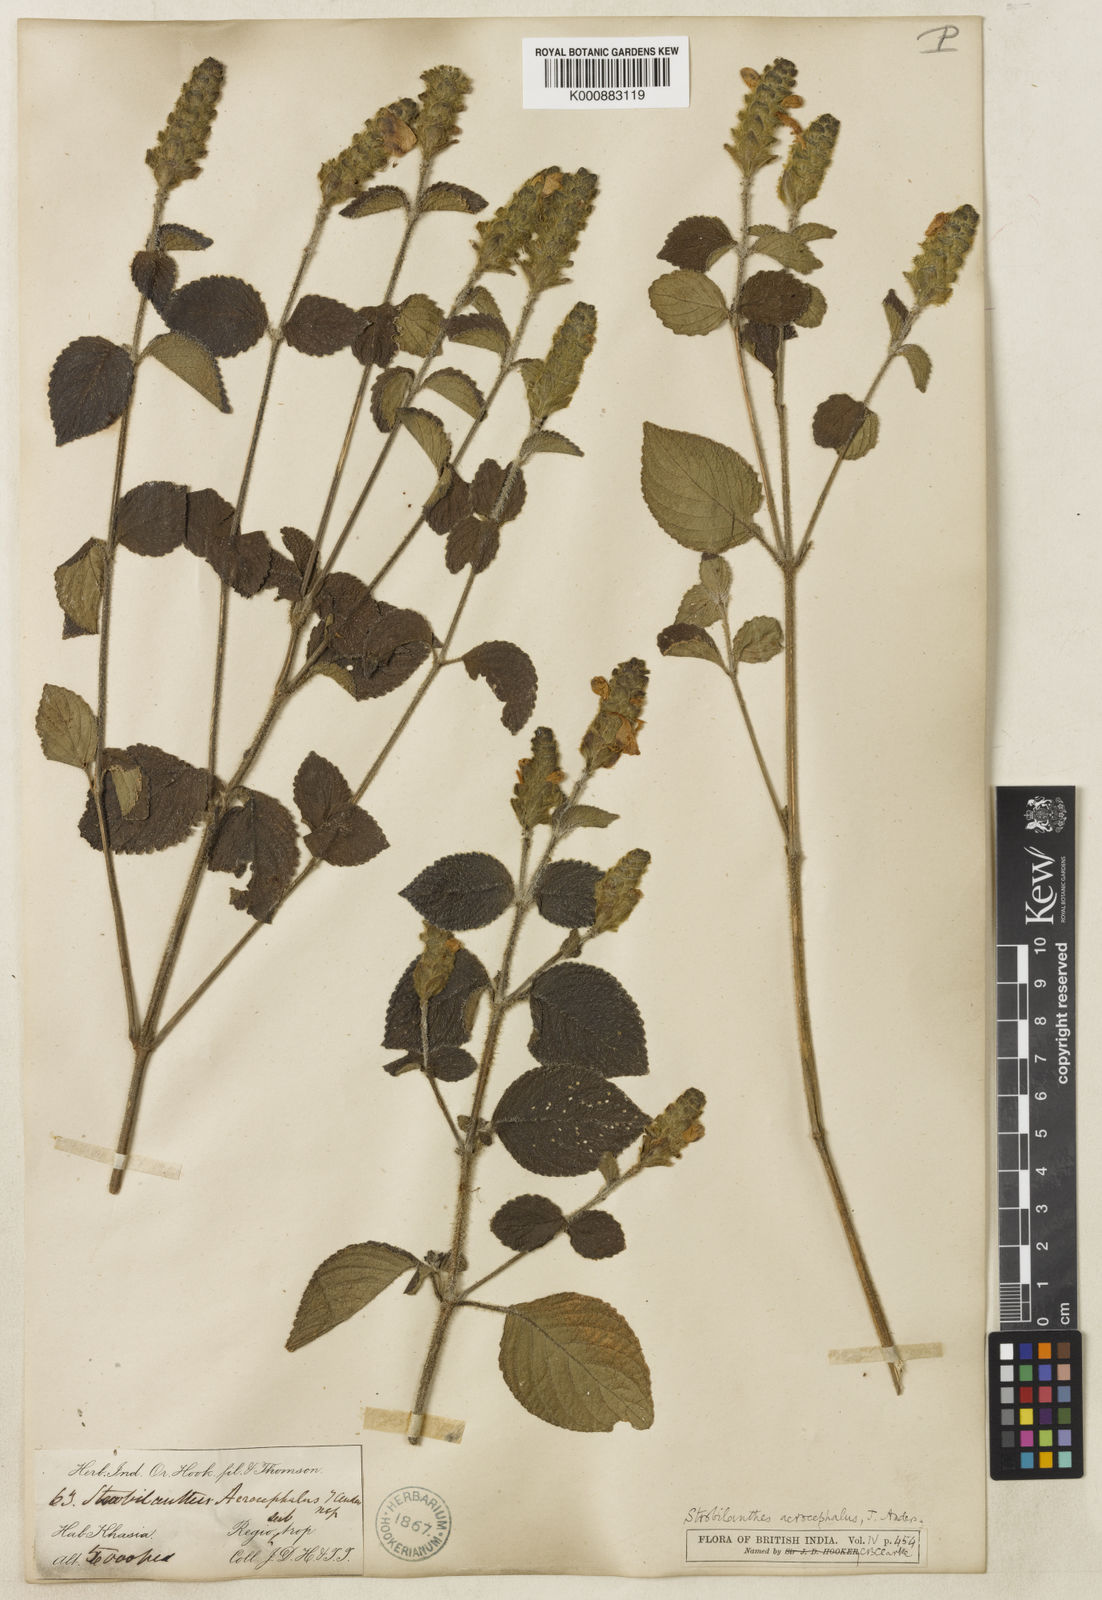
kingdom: Plantae
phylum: Tracheophyta
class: Magnoliopsida
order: Lamiales
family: Acanthaceae
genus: Strobilanthes
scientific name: Strobilanthes
